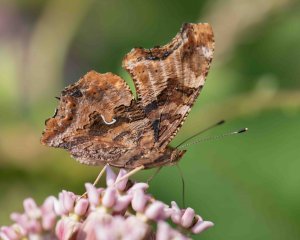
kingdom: Animalia
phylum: Arthropoda
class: Insecta
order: Lepidoptera
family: Nymphalidae
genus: Polygonia
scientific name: Polygonia comma
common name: Eastern Comma
